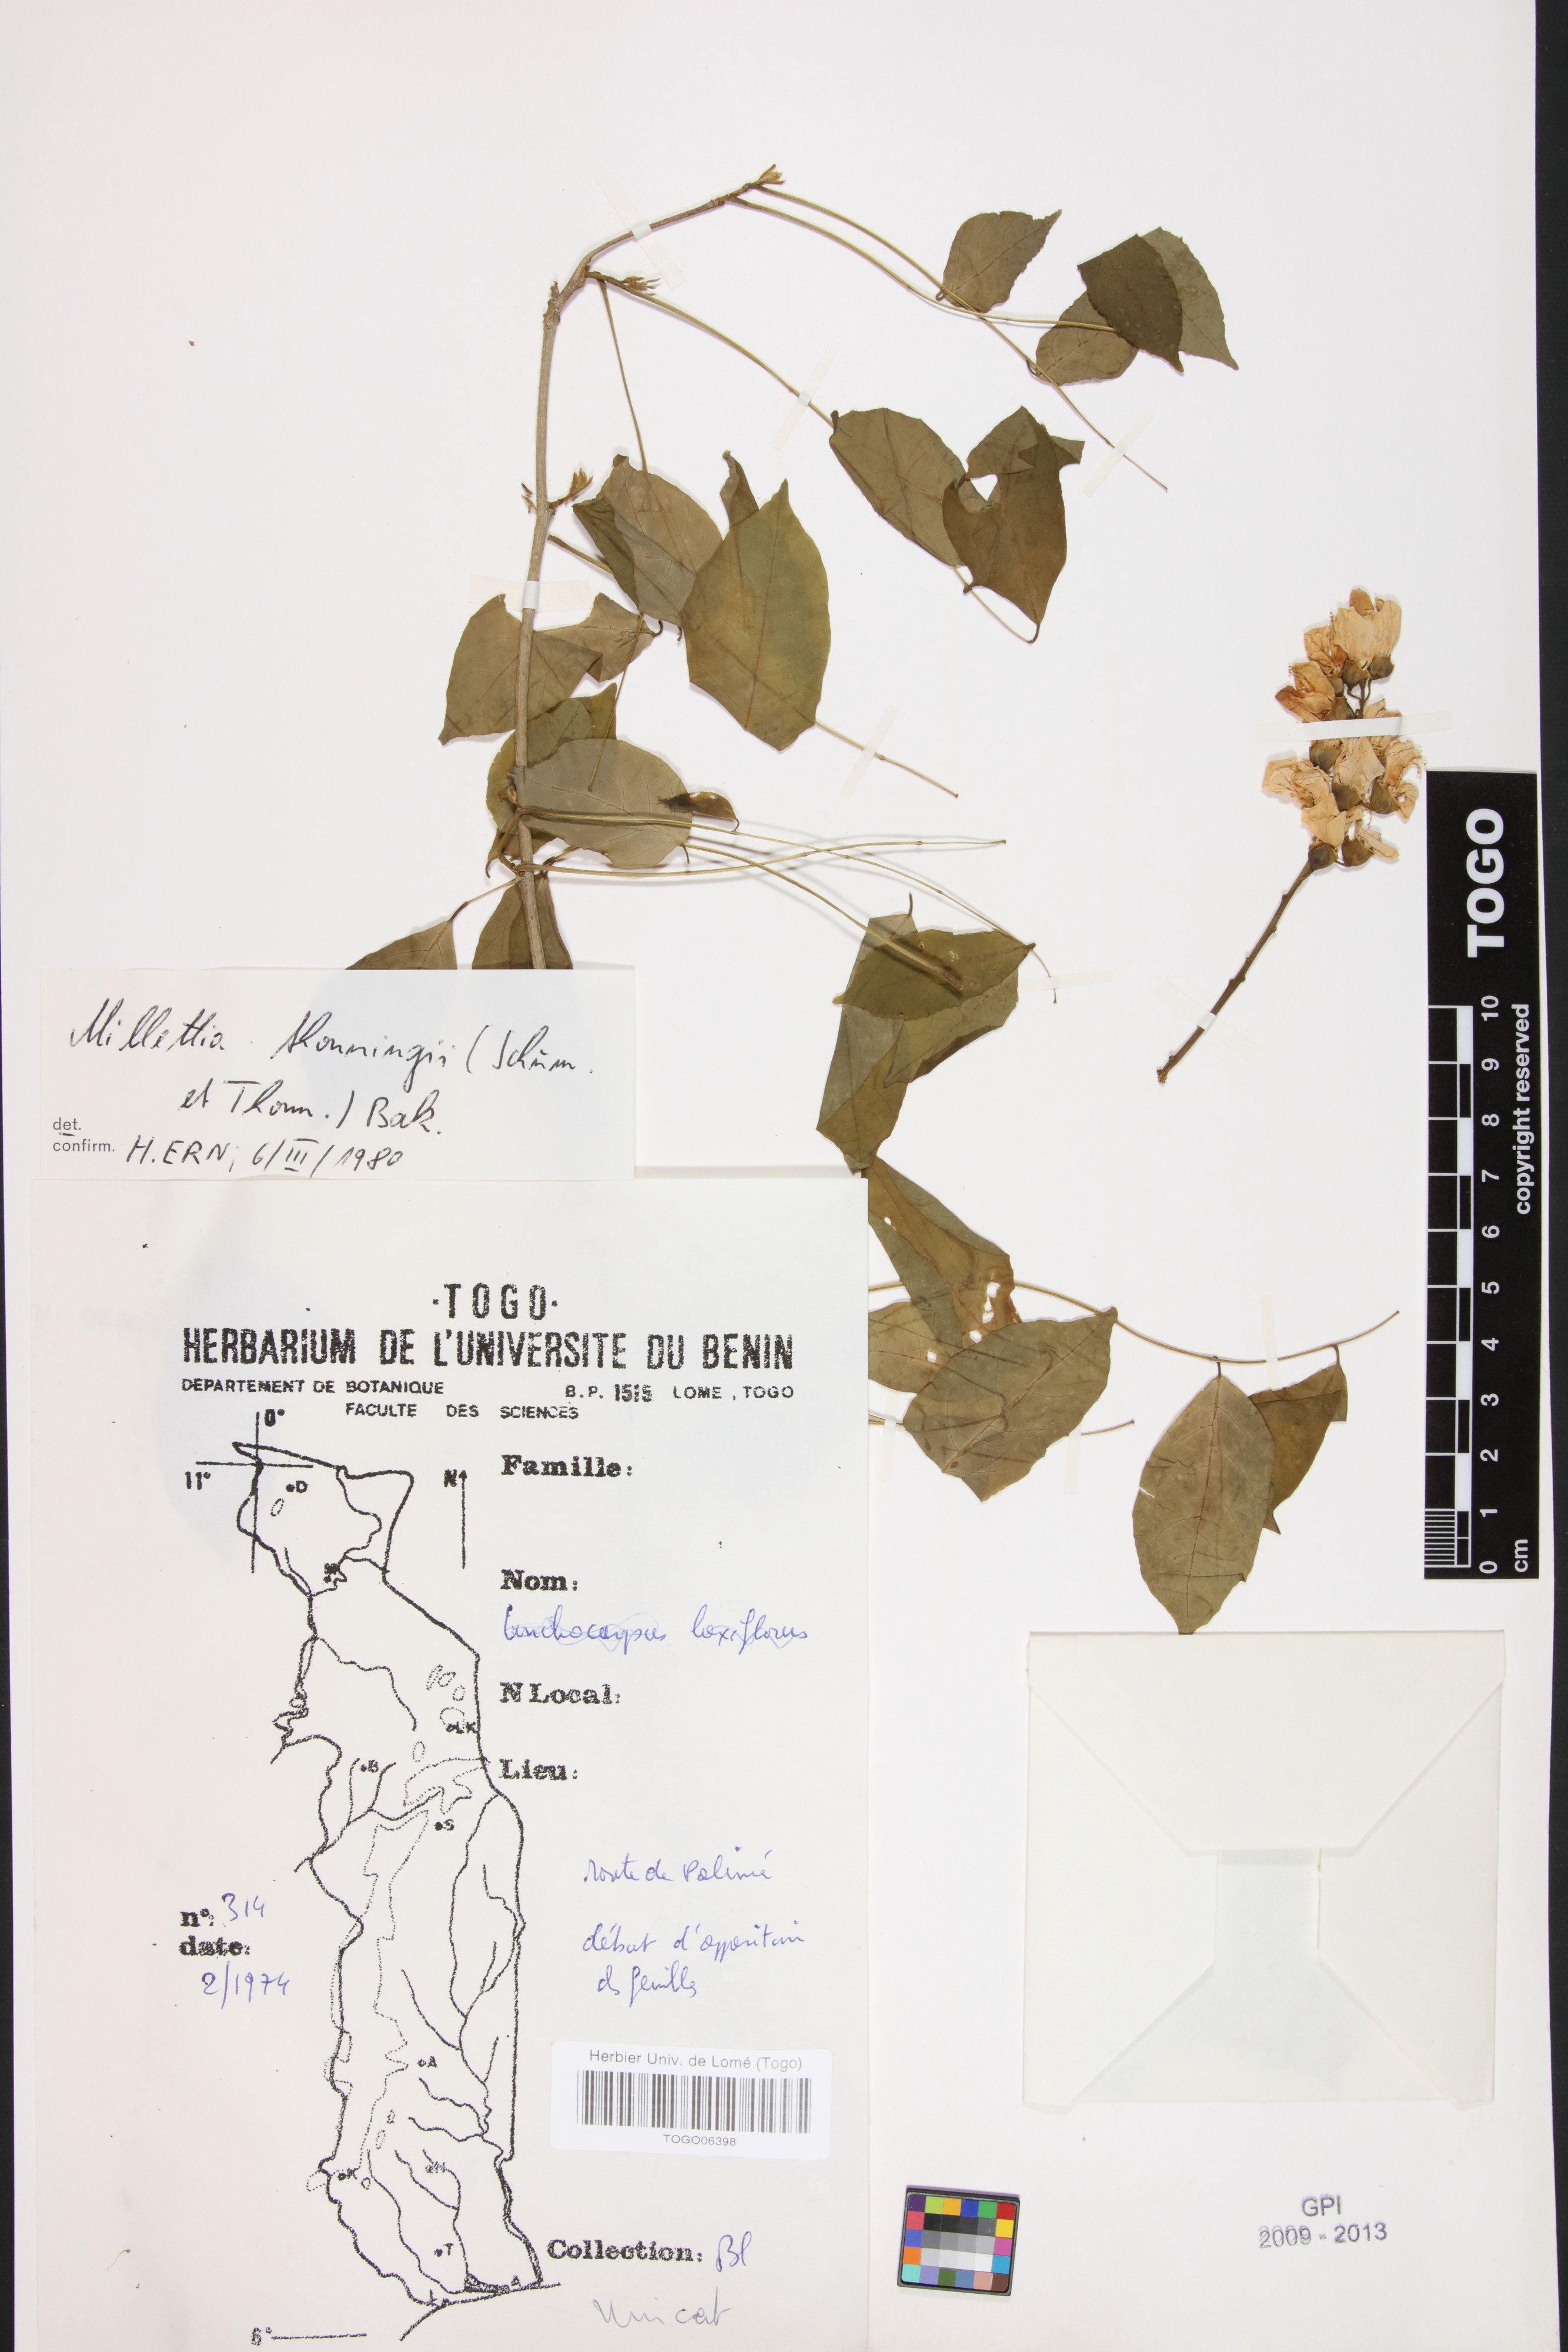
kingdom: Plantae
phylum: Tracheophyta
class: Magnoliopsida
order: Fabales
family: Fabaceae
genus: Millettia
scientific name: Millettia thonningii
